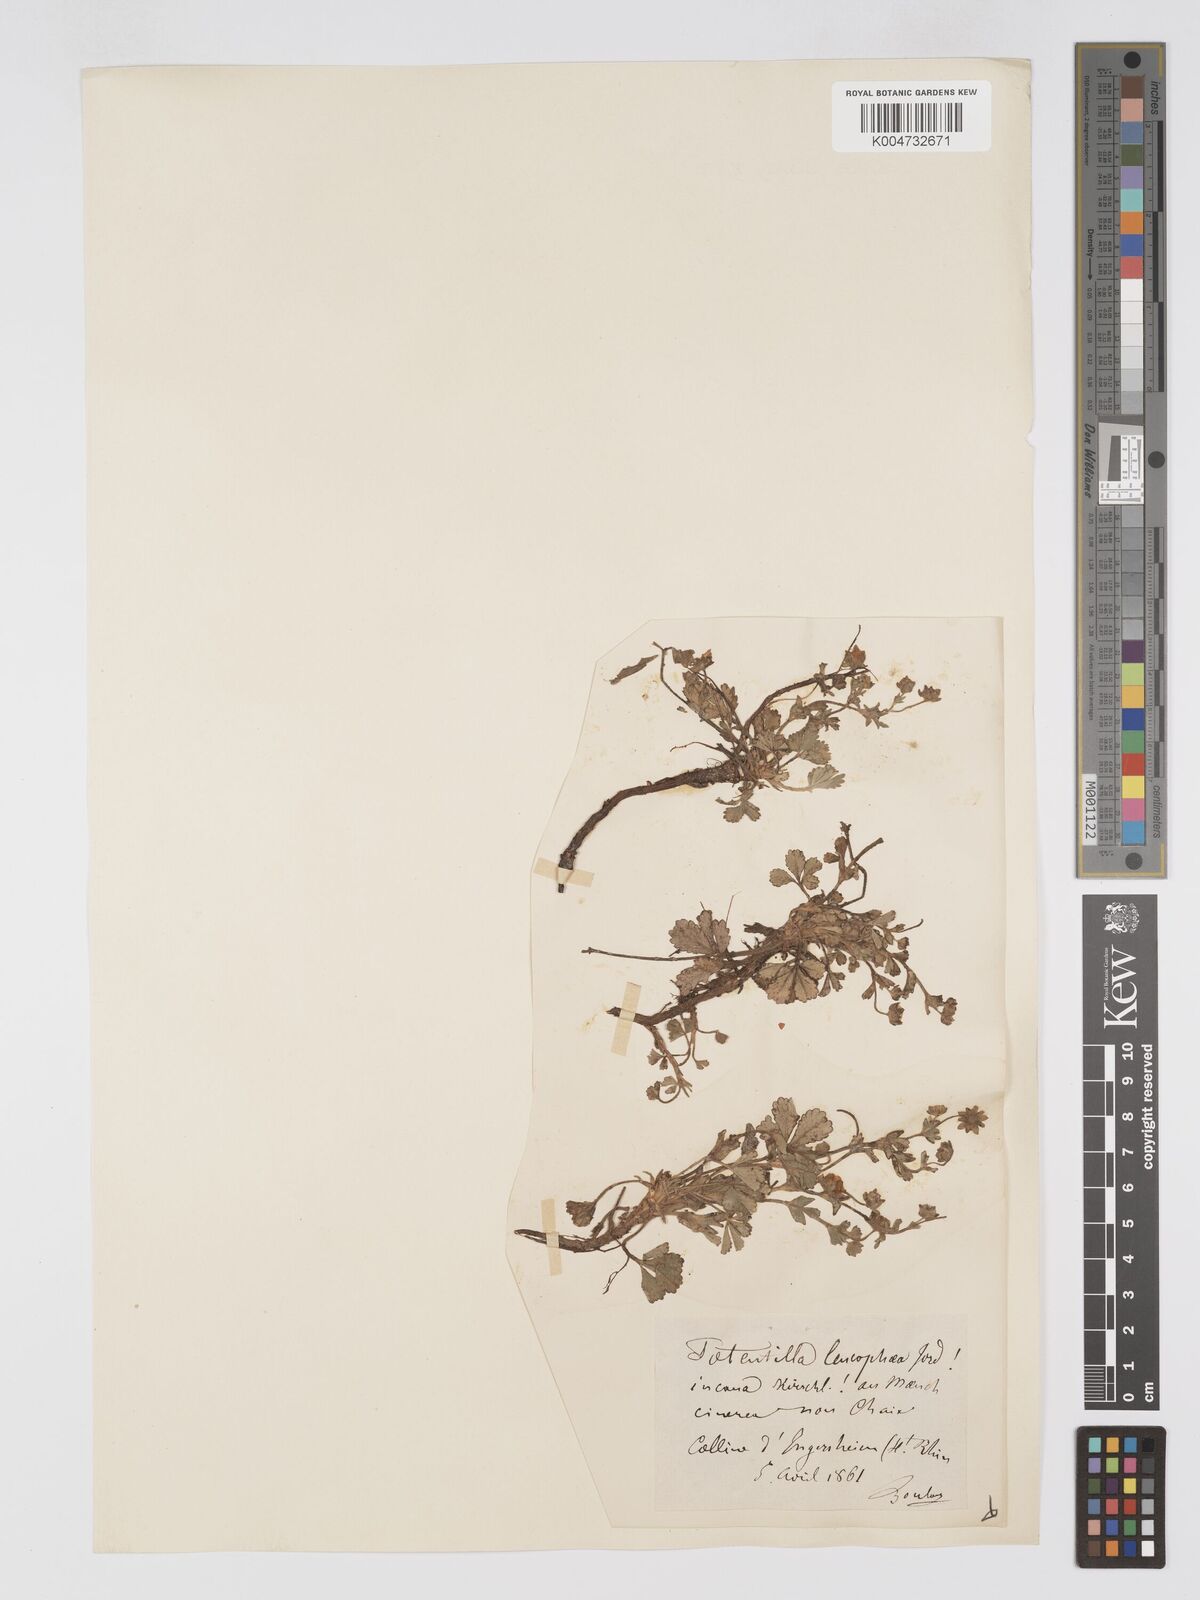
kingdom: Plantae
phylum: Tracheophyta
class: Magnoliopsida
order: Rosales
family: Rosaceae
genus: Potentilla
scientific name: Potentilla cinerea
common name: Ashy cinquefoil
